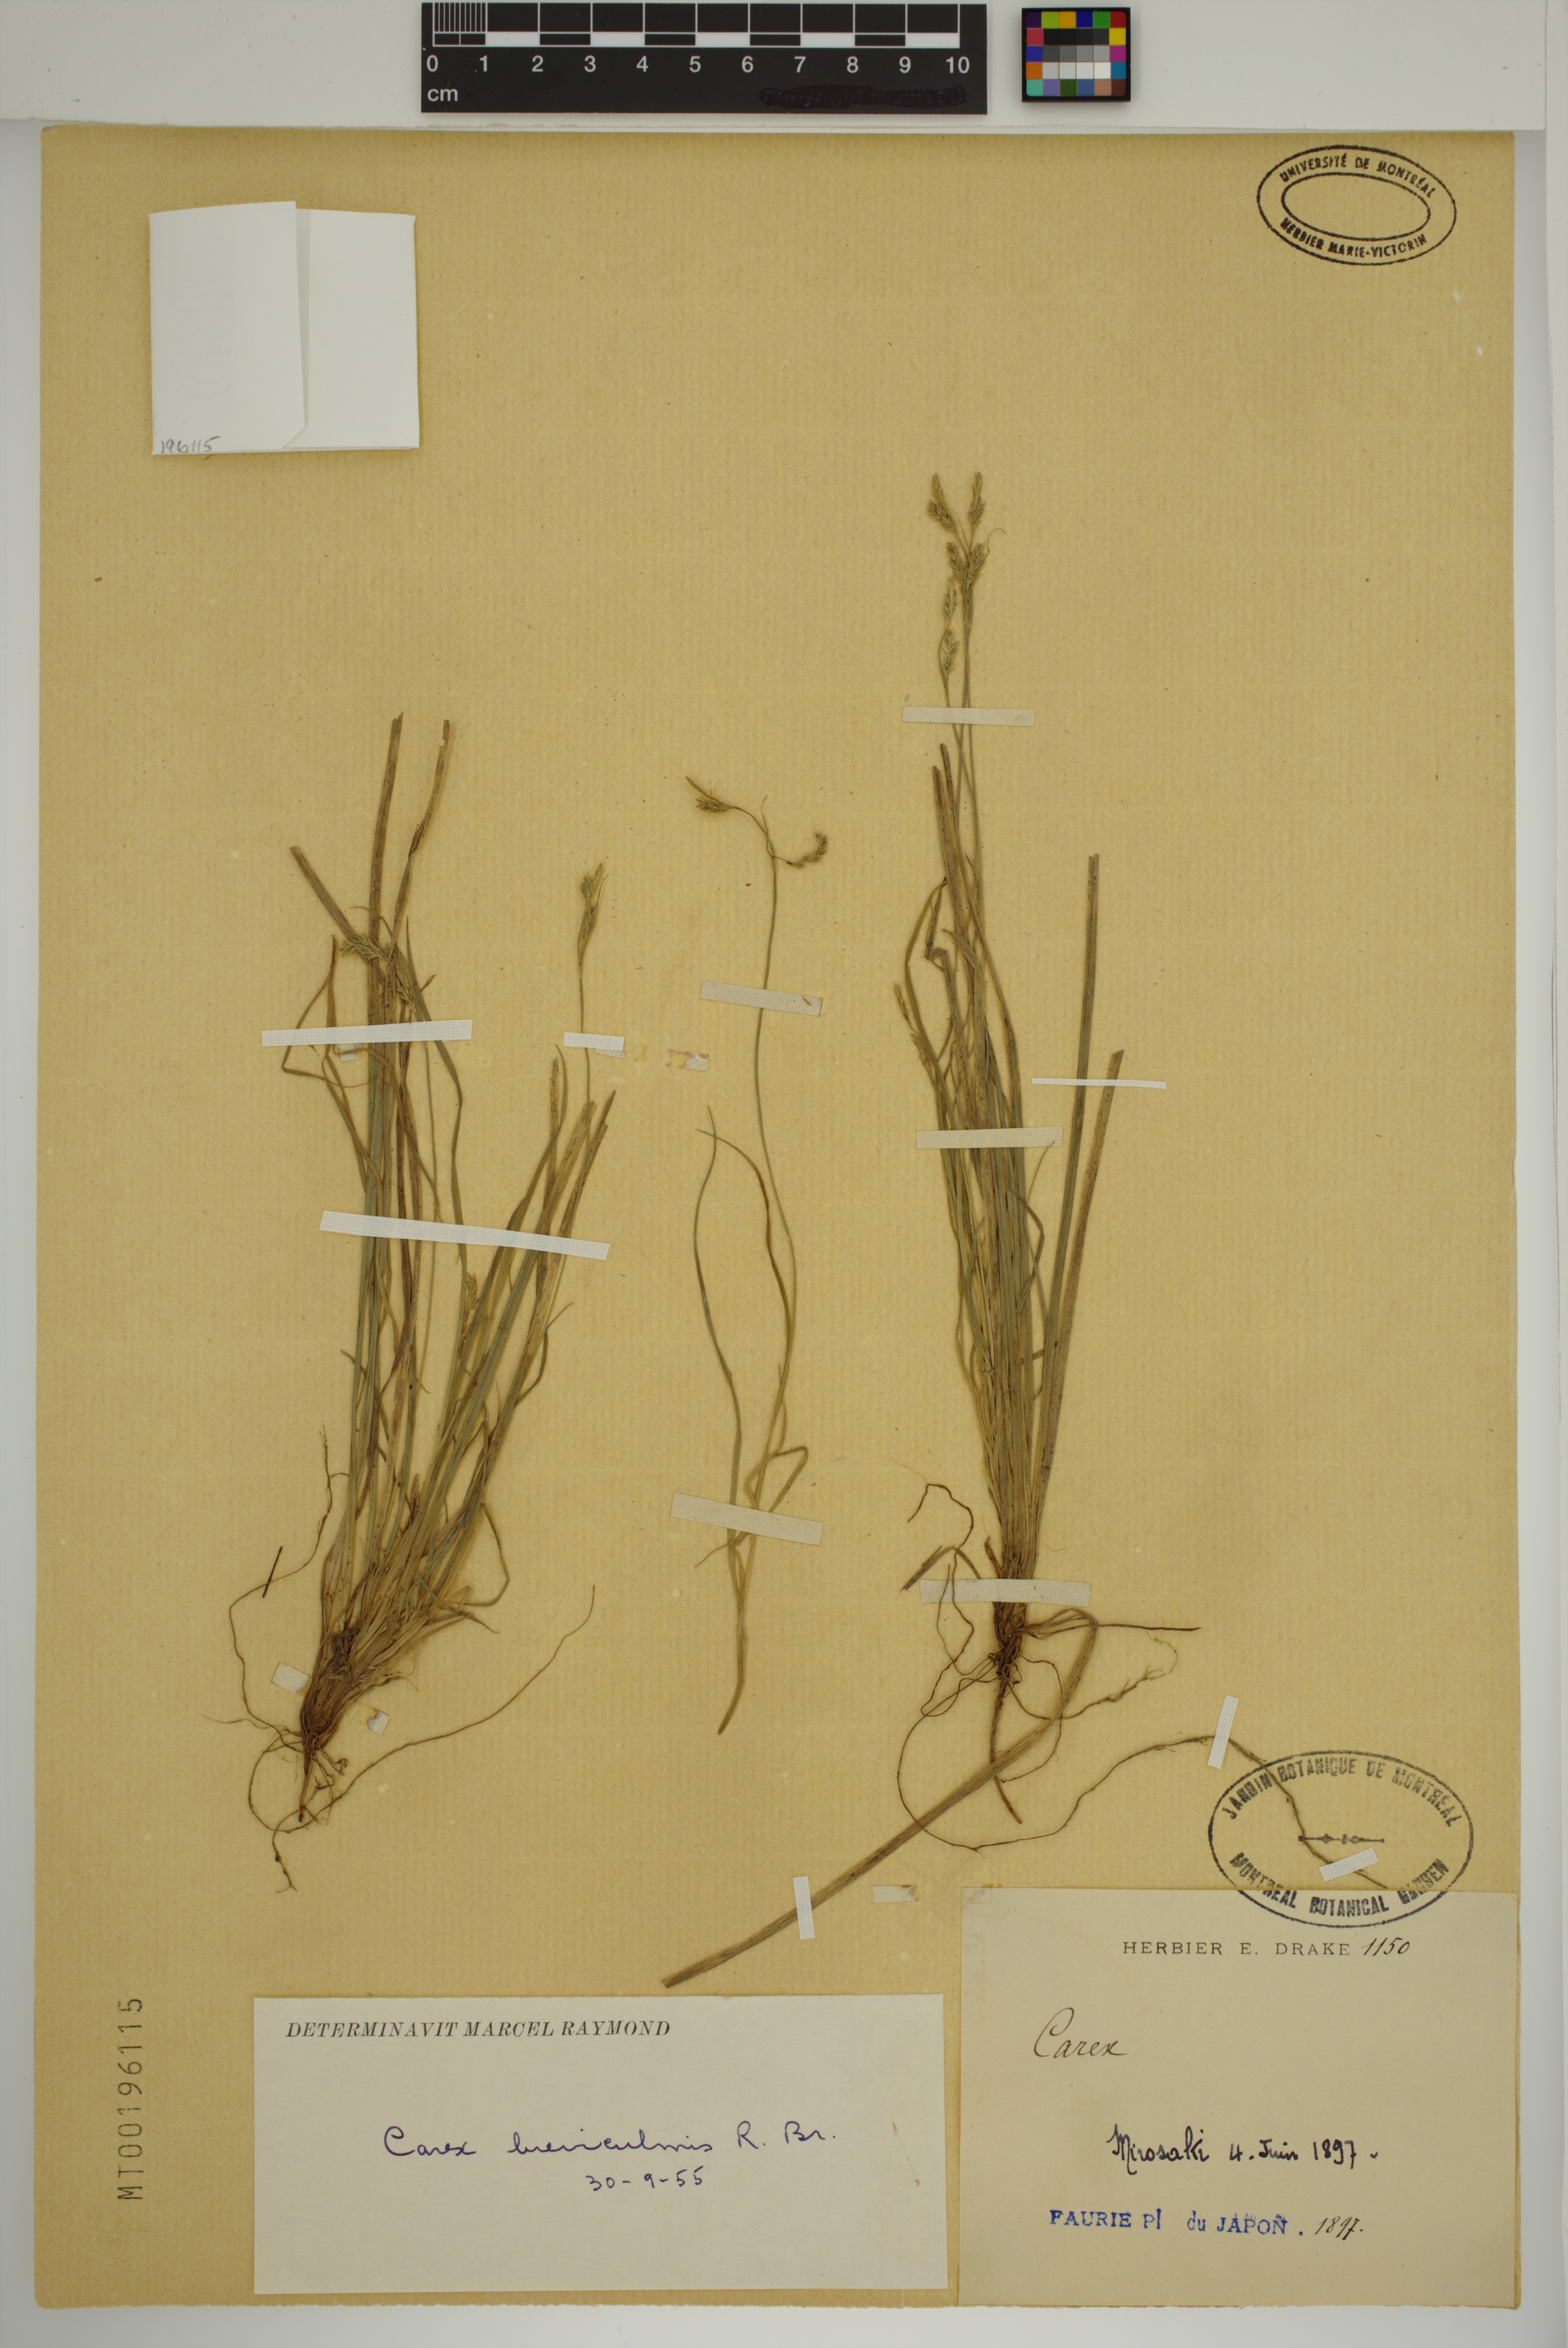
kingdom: Plantae
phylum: Tracheophyta
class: Liliopsida
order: Poales
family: Cyperaceae
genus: Carex
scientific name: Carex breviculmis
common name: Asian shortstem sedge
